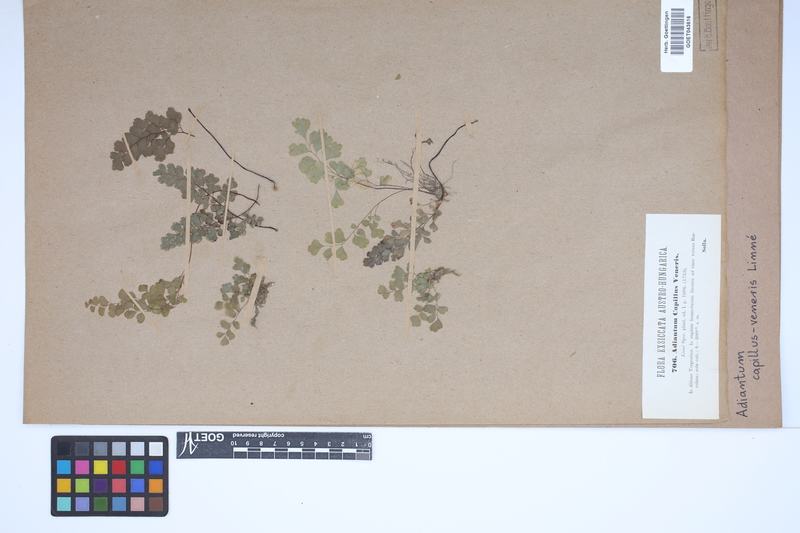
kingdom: Plantae
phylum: Tracheophyta
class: Polypodiopsida
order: Polypodiales
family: Pteridaceae
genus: Adiantum
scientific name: Adiantum capillus-veneris
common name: Maidenhair fern
